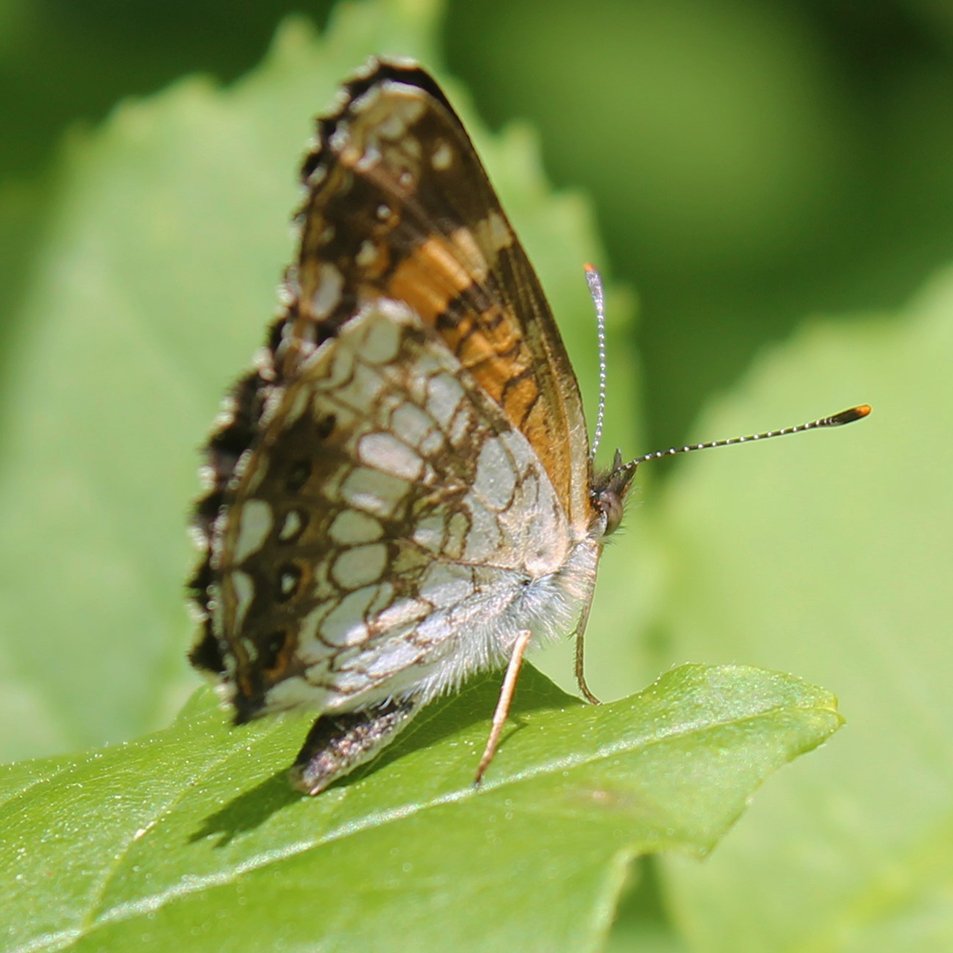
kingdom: Animalia
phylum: Arthropoda
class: Insecta
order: Lepidoptera
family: Nymphalidae
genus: Chlosyne
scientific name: Chlosyne nycteis
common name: Silvery Checkerspot
